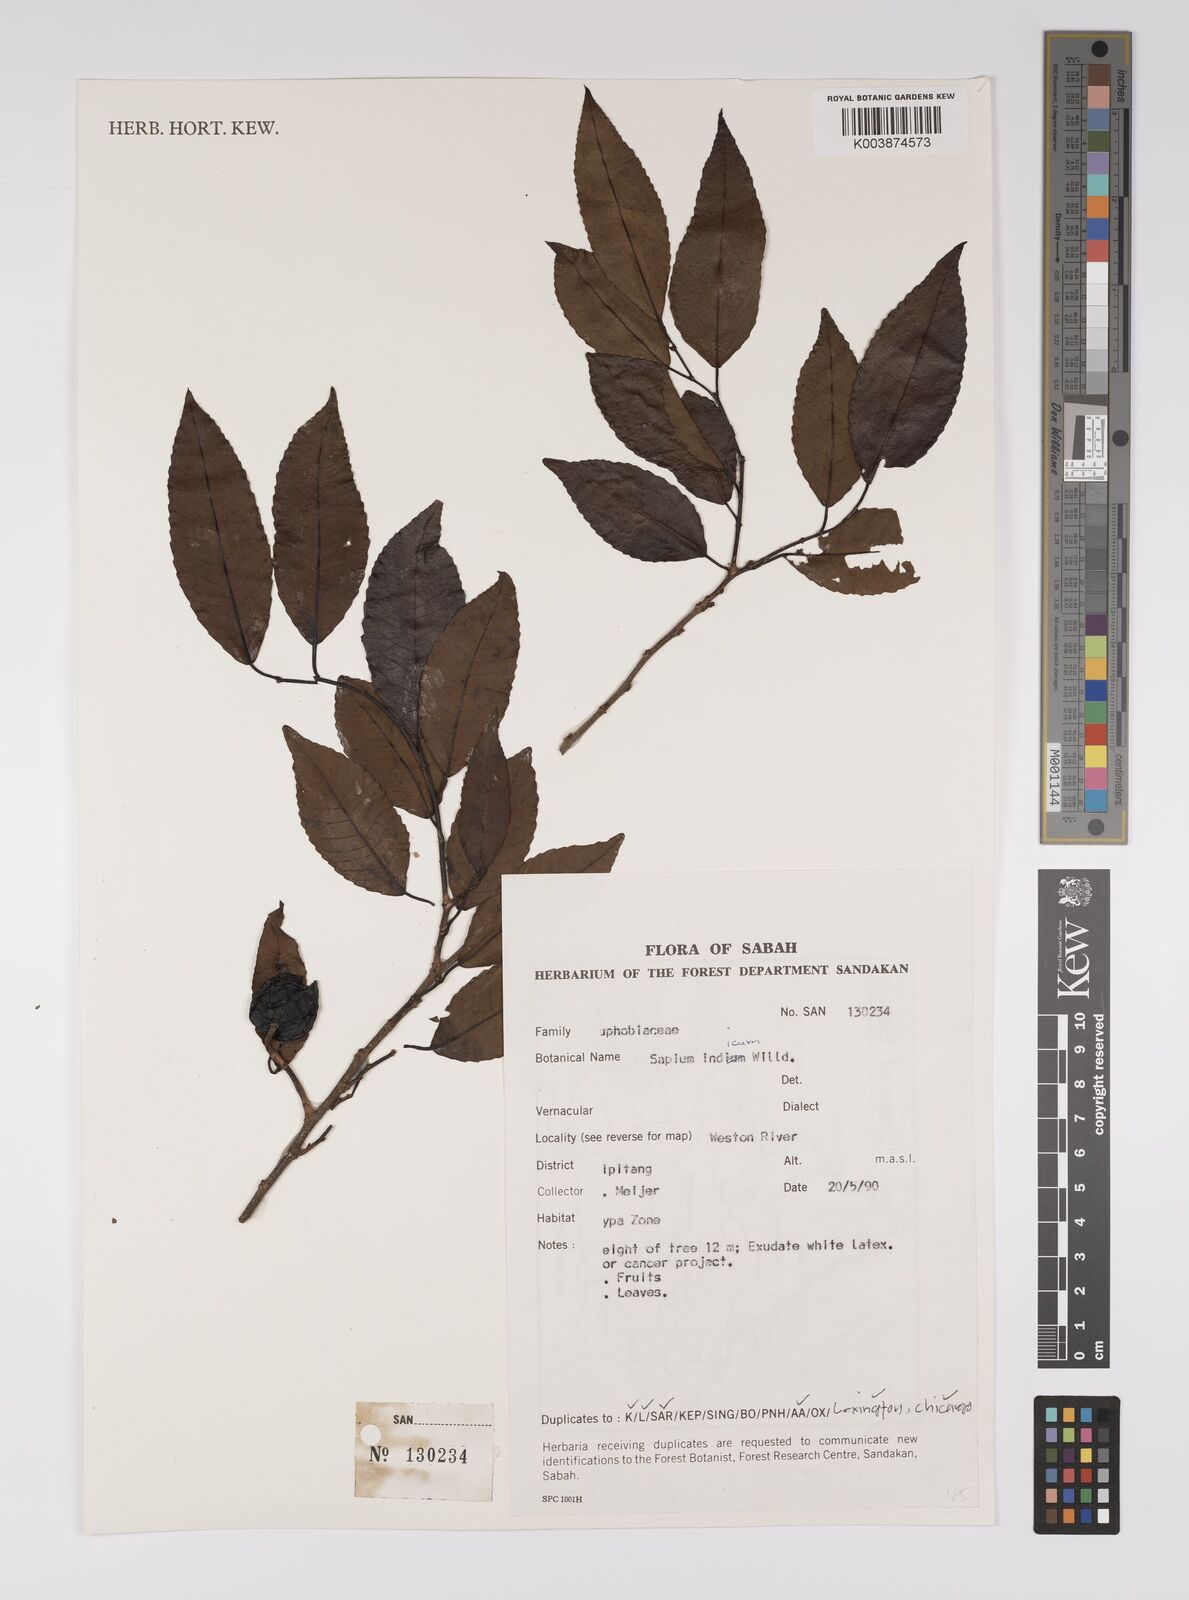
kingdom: Plantae
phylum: Tracheophyta
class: Magnoliopsida
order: Malpighiales
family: Euphorbiaceae
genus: Shirakiopsis
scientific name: Shirakiopsis indica
